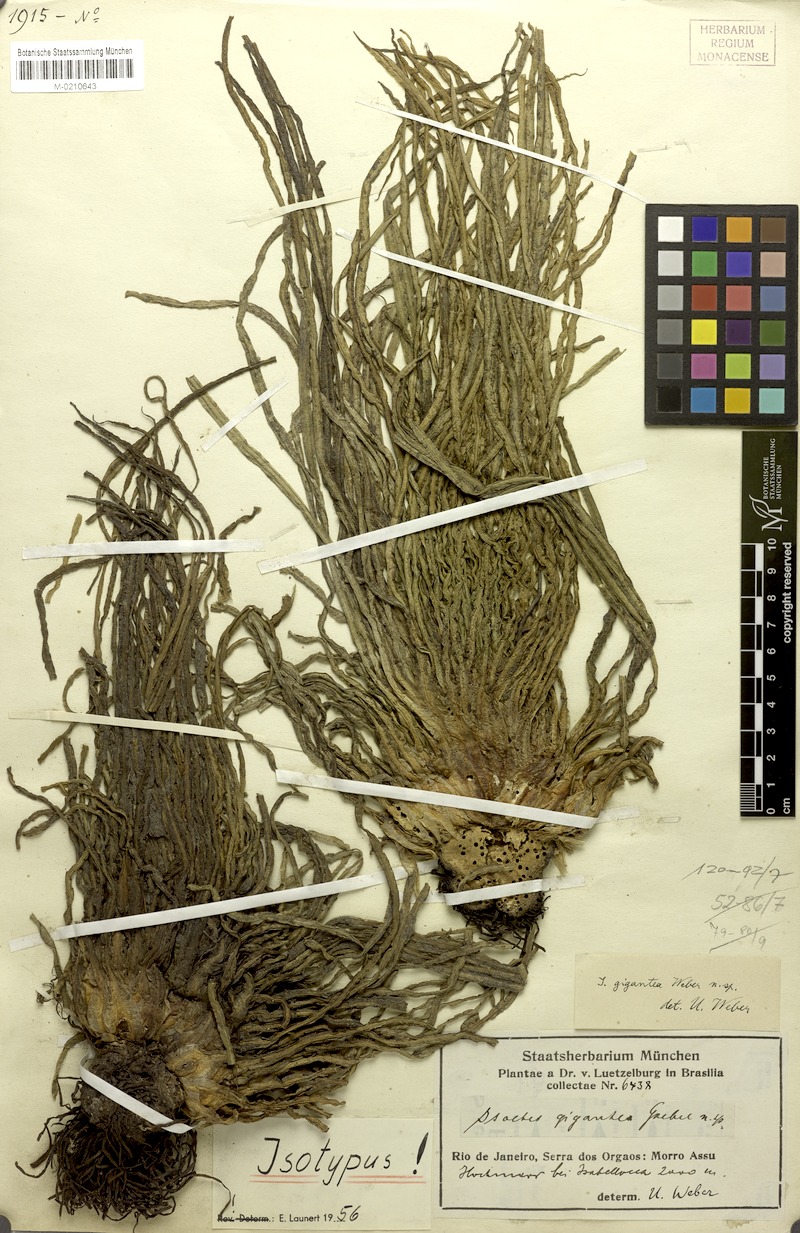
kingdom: Plantae
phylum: Tracheophyta
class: Lycopodiopsida
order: Isoetales
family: Isoetaceae
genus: Isoetes
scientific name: Isoetes gigantea
